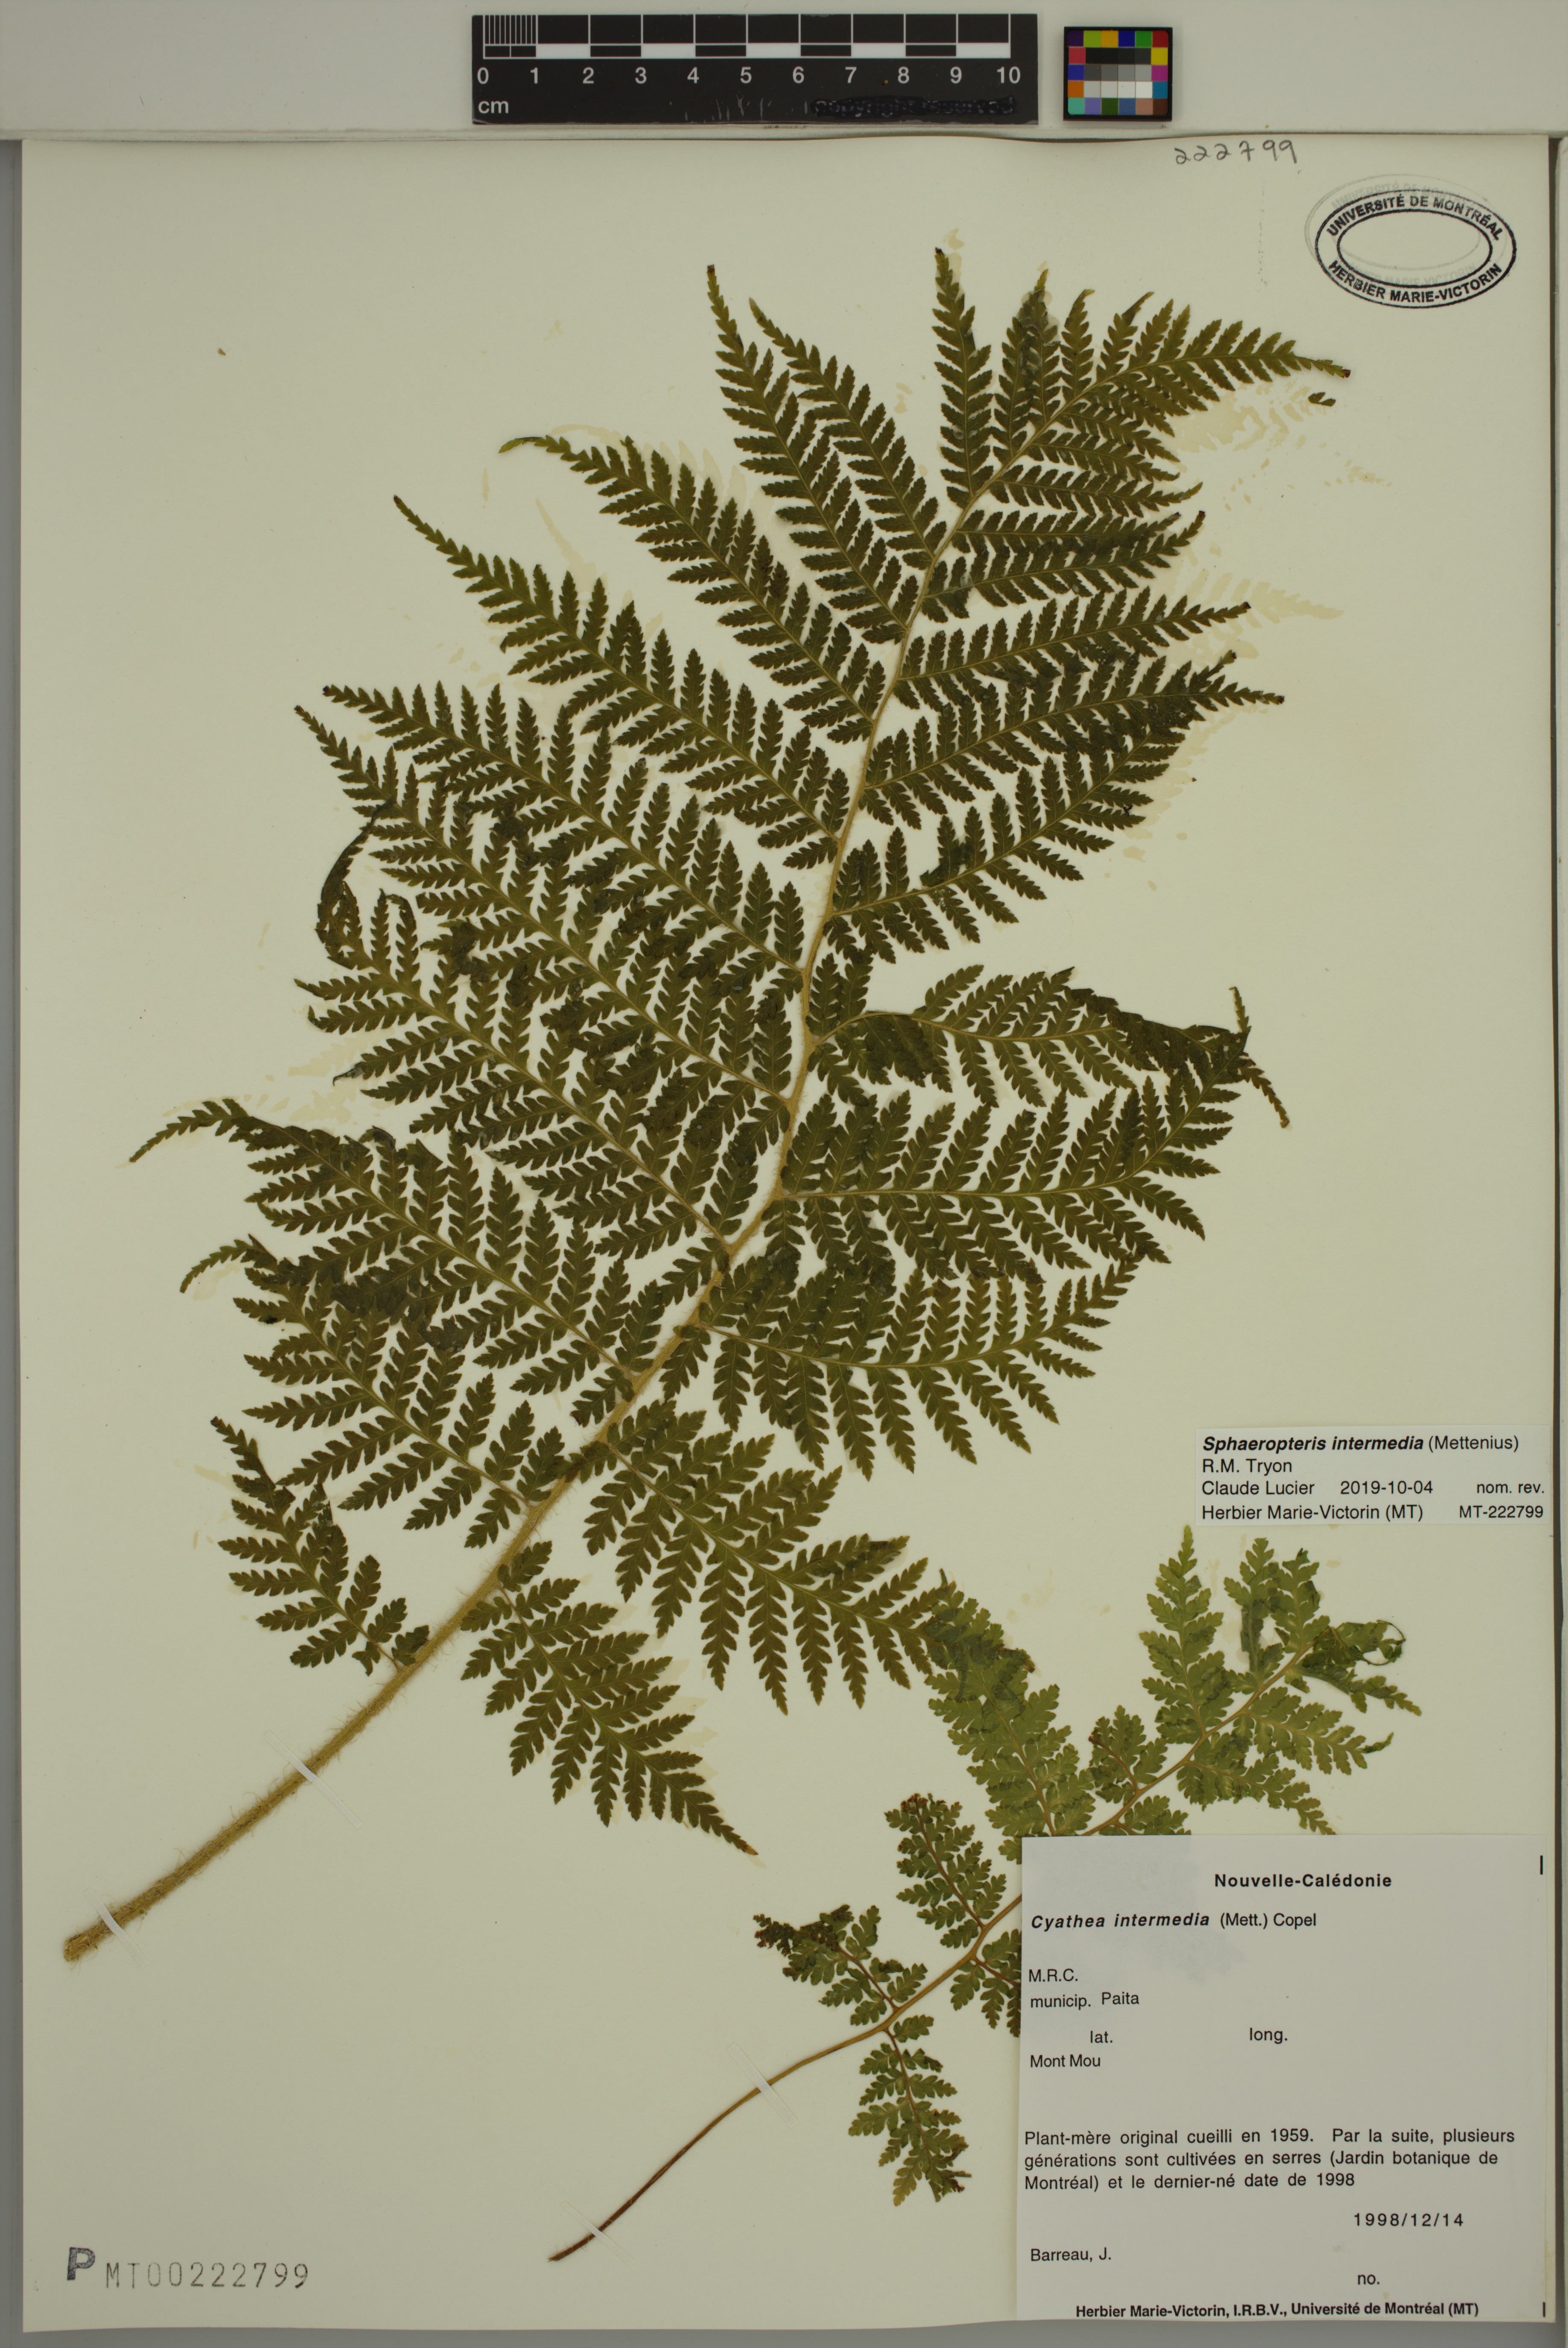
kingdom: Plantae
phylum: Tracheophyta
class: Polypodiopsida
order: Cyatheales
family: Cyatheaceae
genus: Sphaeropteris
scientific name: Sphaeropteris intermedia
